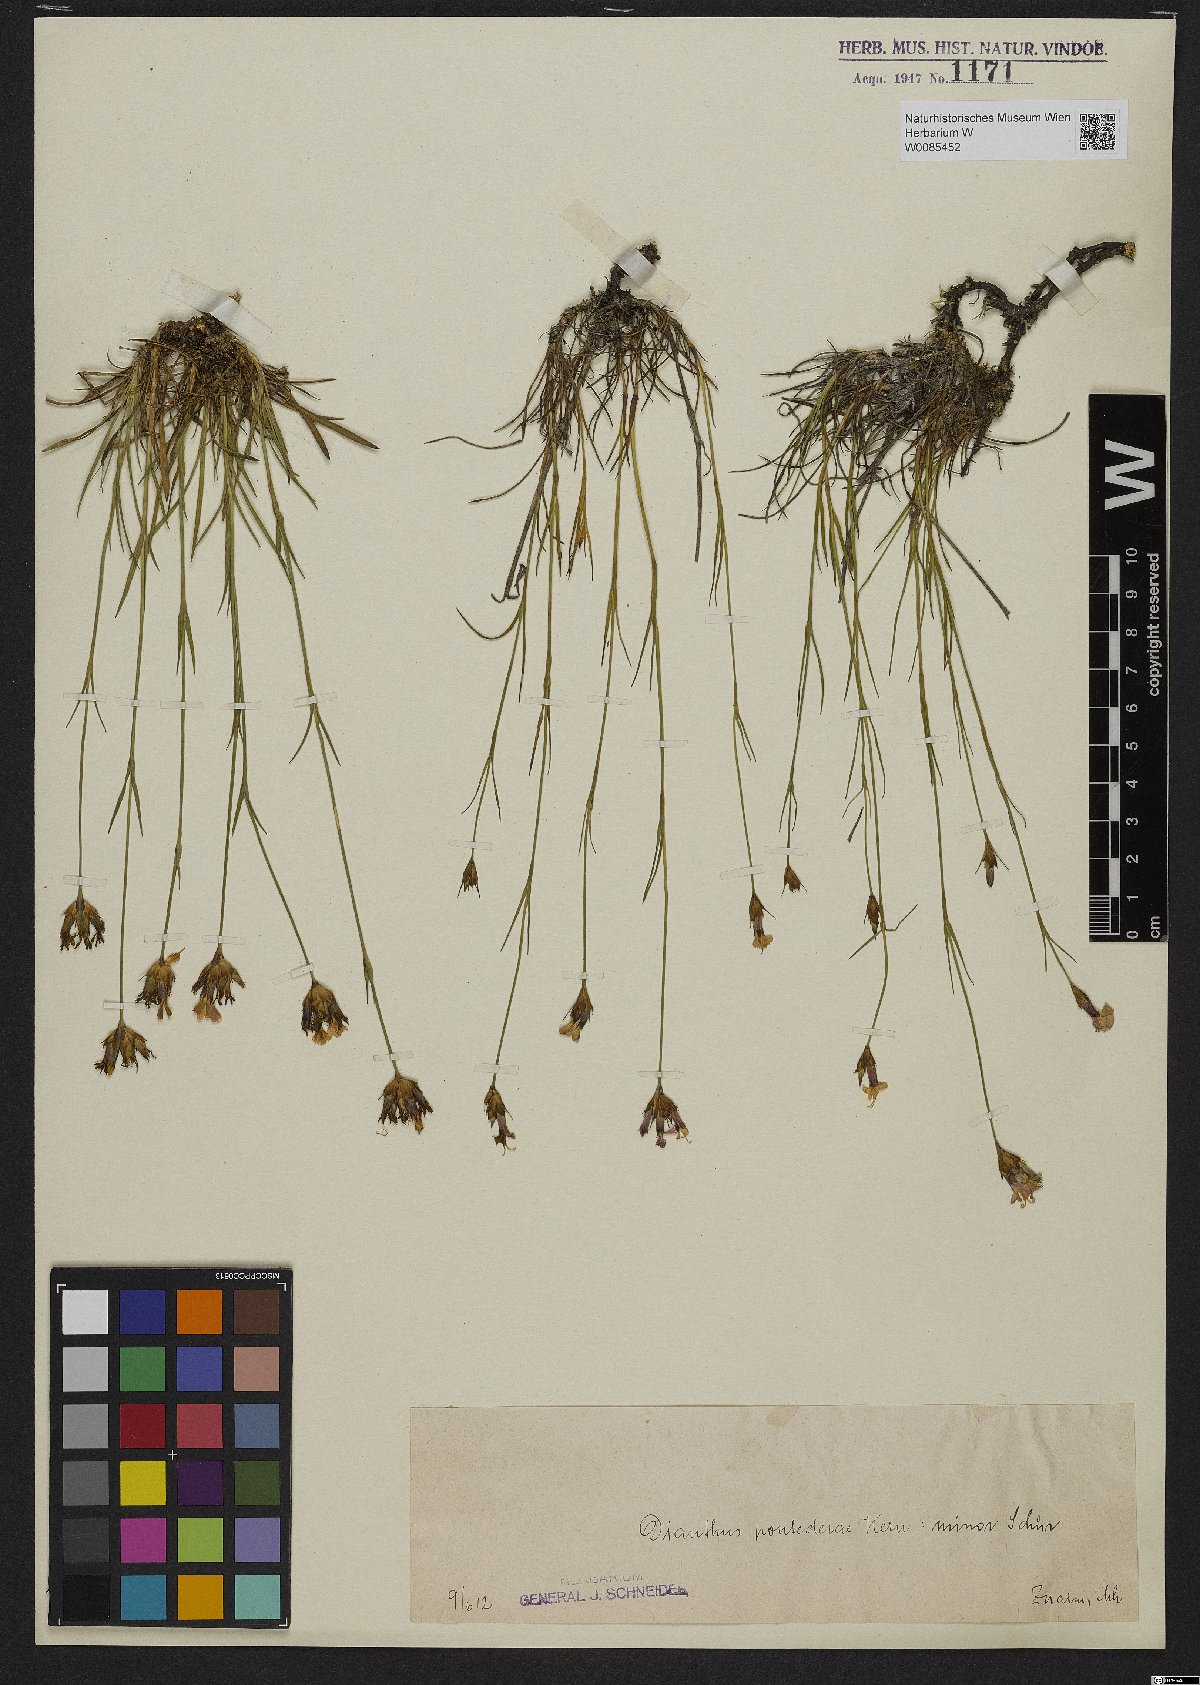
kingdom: Plantae
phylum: Tracheophyta
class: Magnoliopsida
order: Caryophyllales
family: Caryophyllaceae
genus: Dianthus
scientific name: Dianthus pontederae
